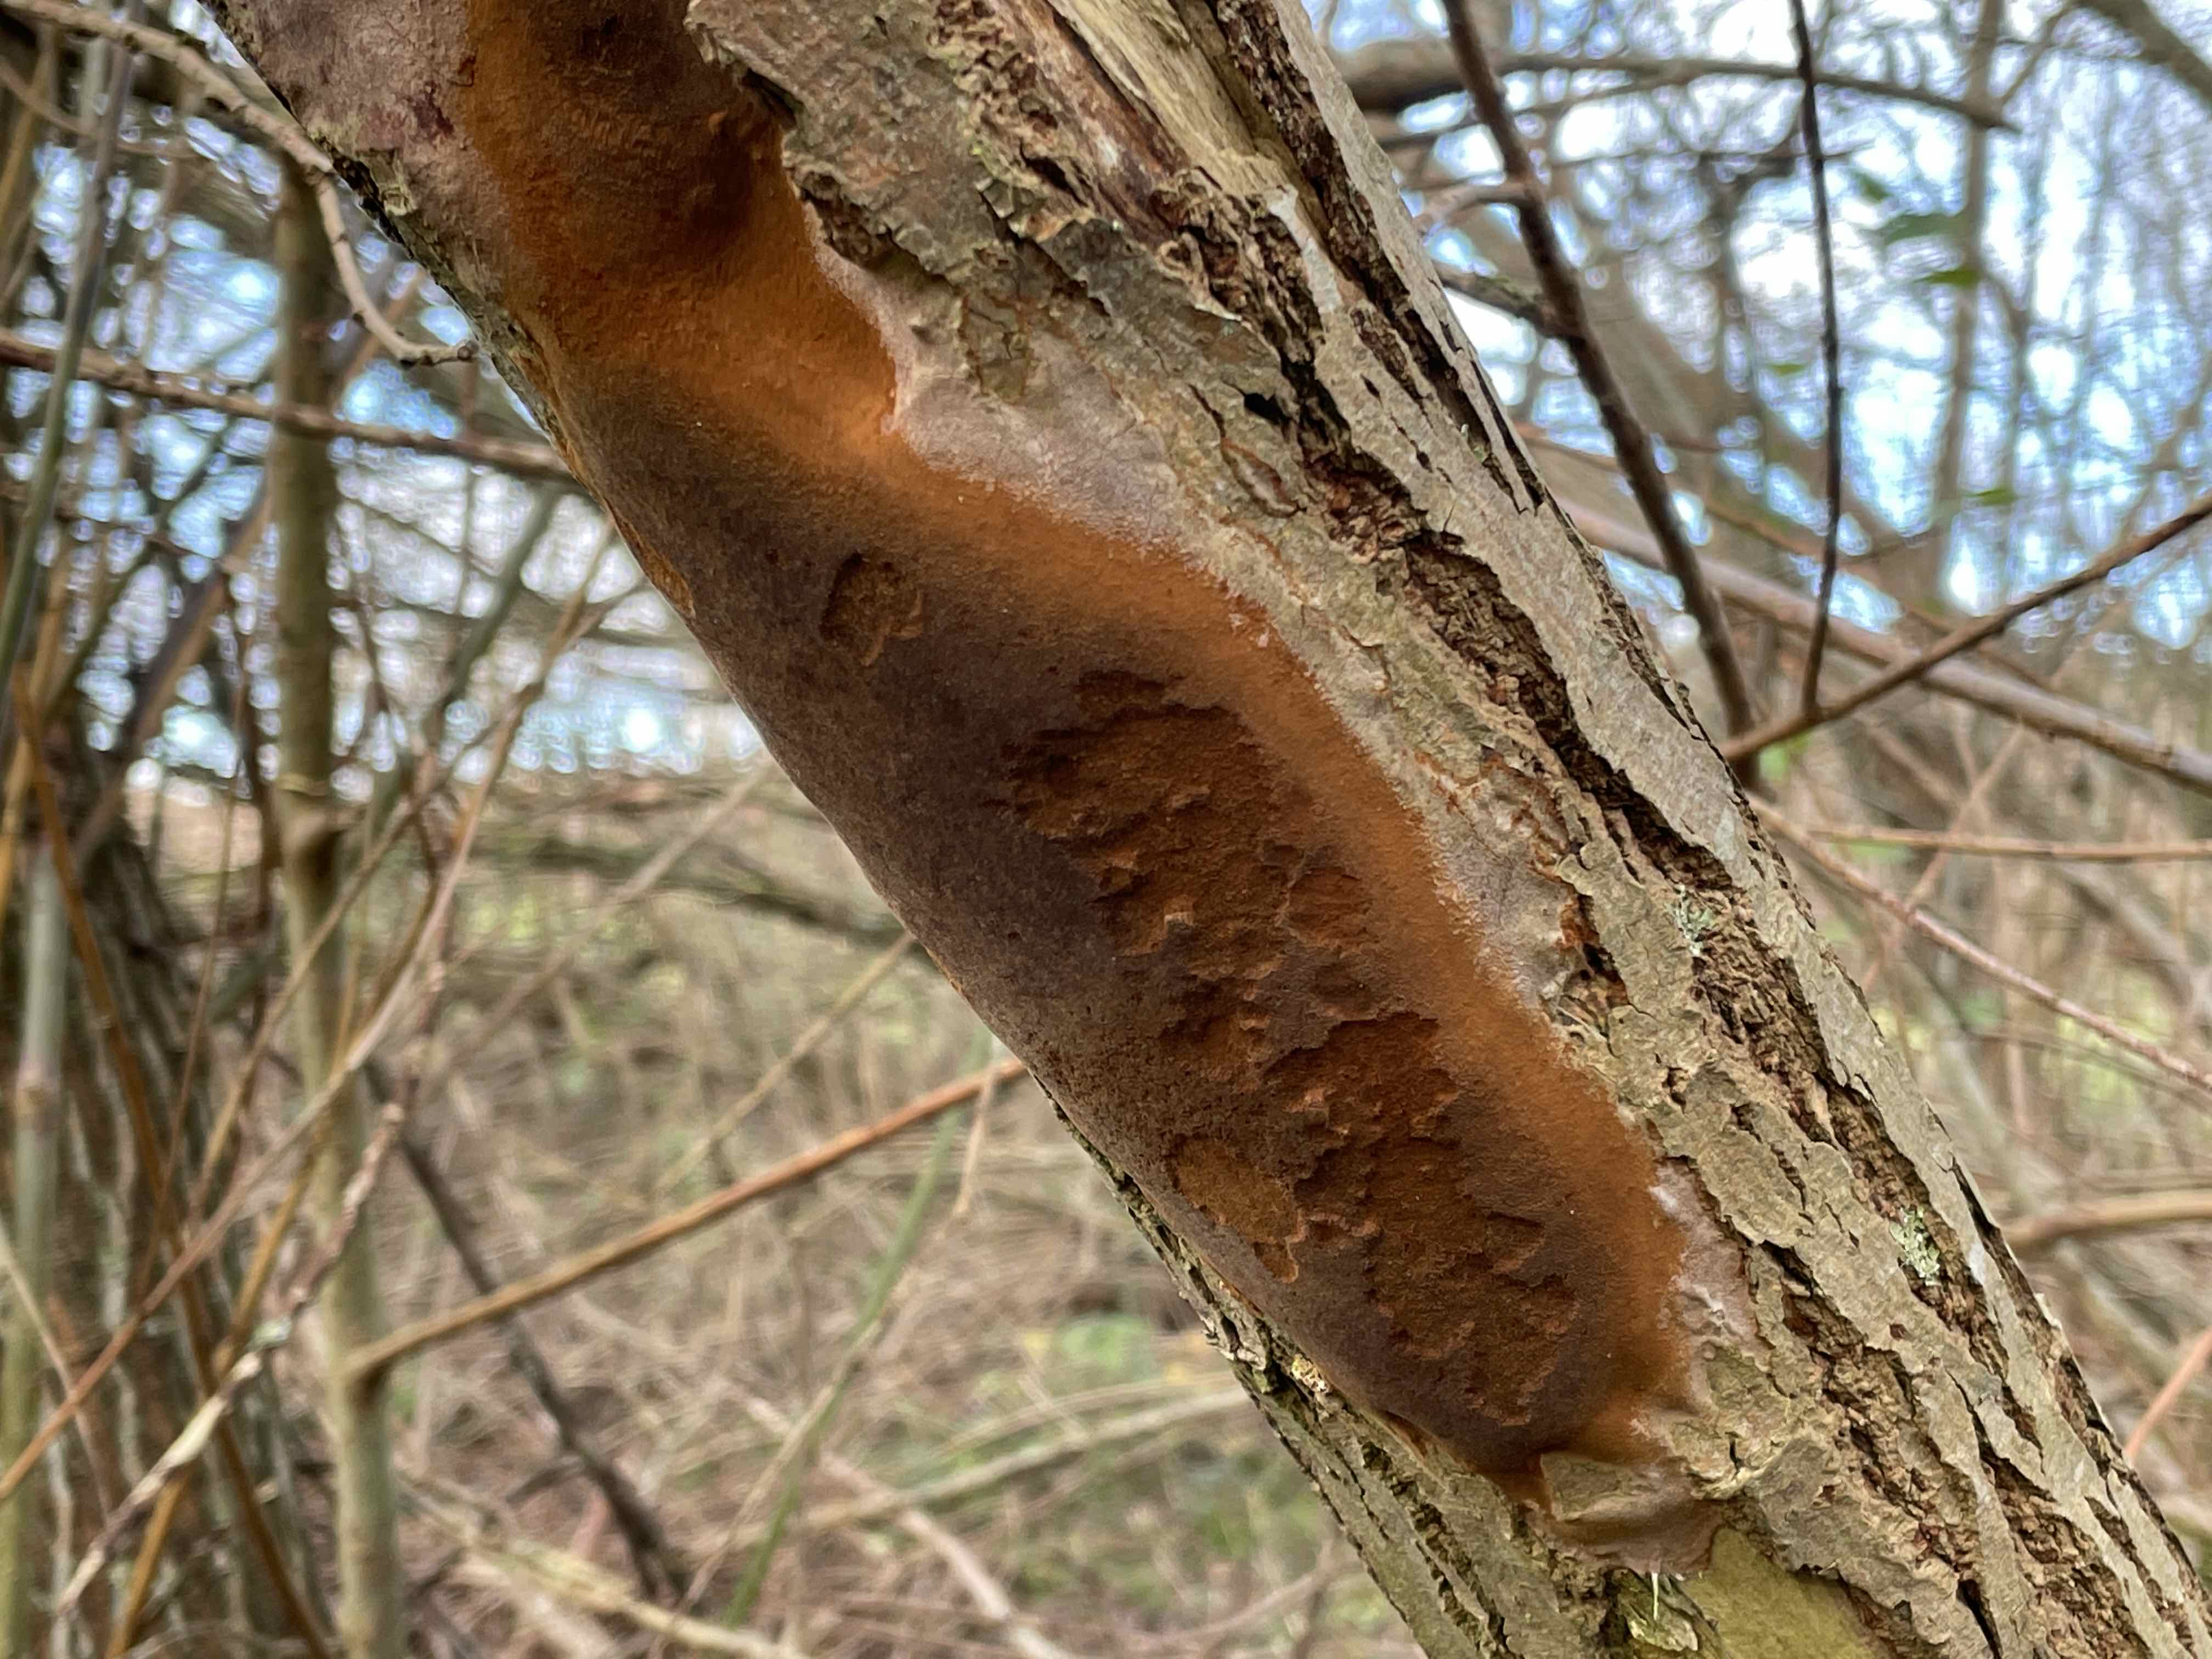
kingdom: Fungi
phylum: Basidiomycota
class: Agaricomycetes
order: Hymenochaetales
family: Hymenochaetaceae
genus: Fomitiporia
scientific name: Fomitiporia punctata
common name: pude-ildporesvamp
